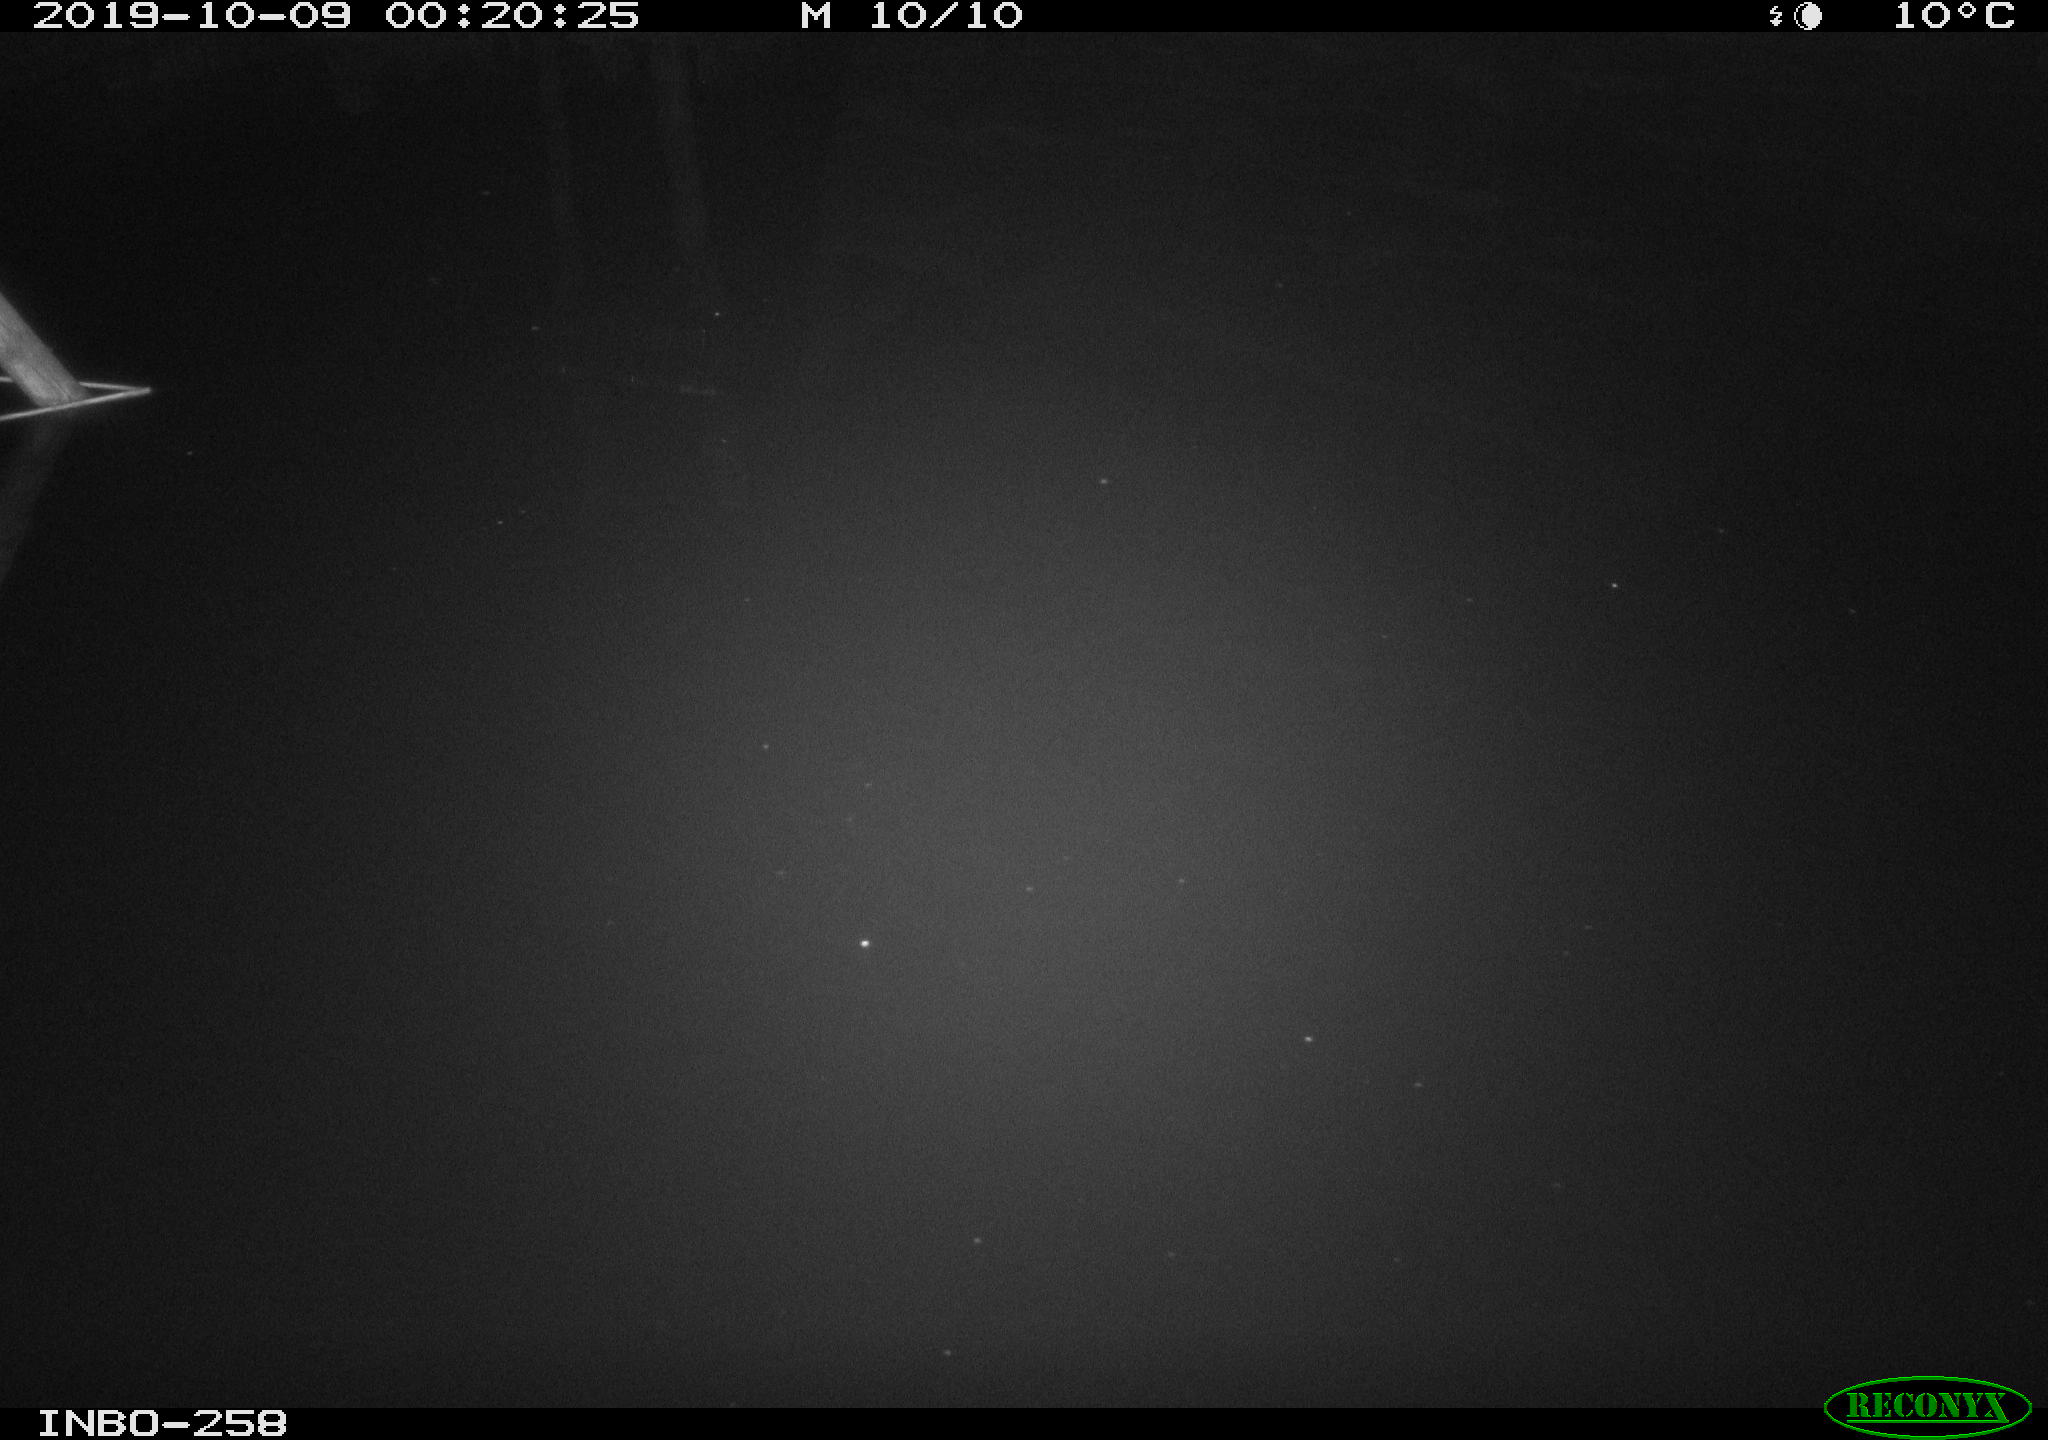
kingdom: Animalia
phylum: Chordata
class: Aves
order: Anseriformes
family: Anatidae
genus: Anas
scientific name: Anas platyrhynchos
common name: Mallard
